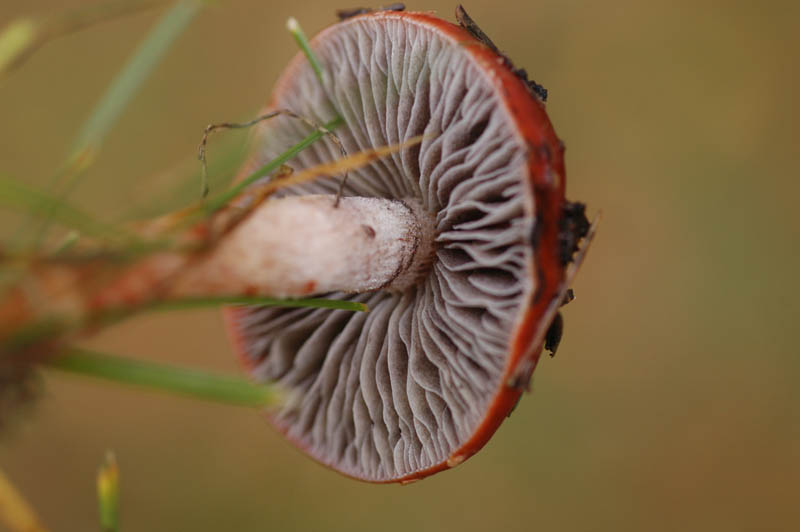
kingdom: Fungi
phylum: Basidiomycota
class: Agaricomycetes
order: Agaricales
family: Strophariaceae
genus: Leratiomyces
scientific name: Leratiomyces ceres
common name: orange bredblad
